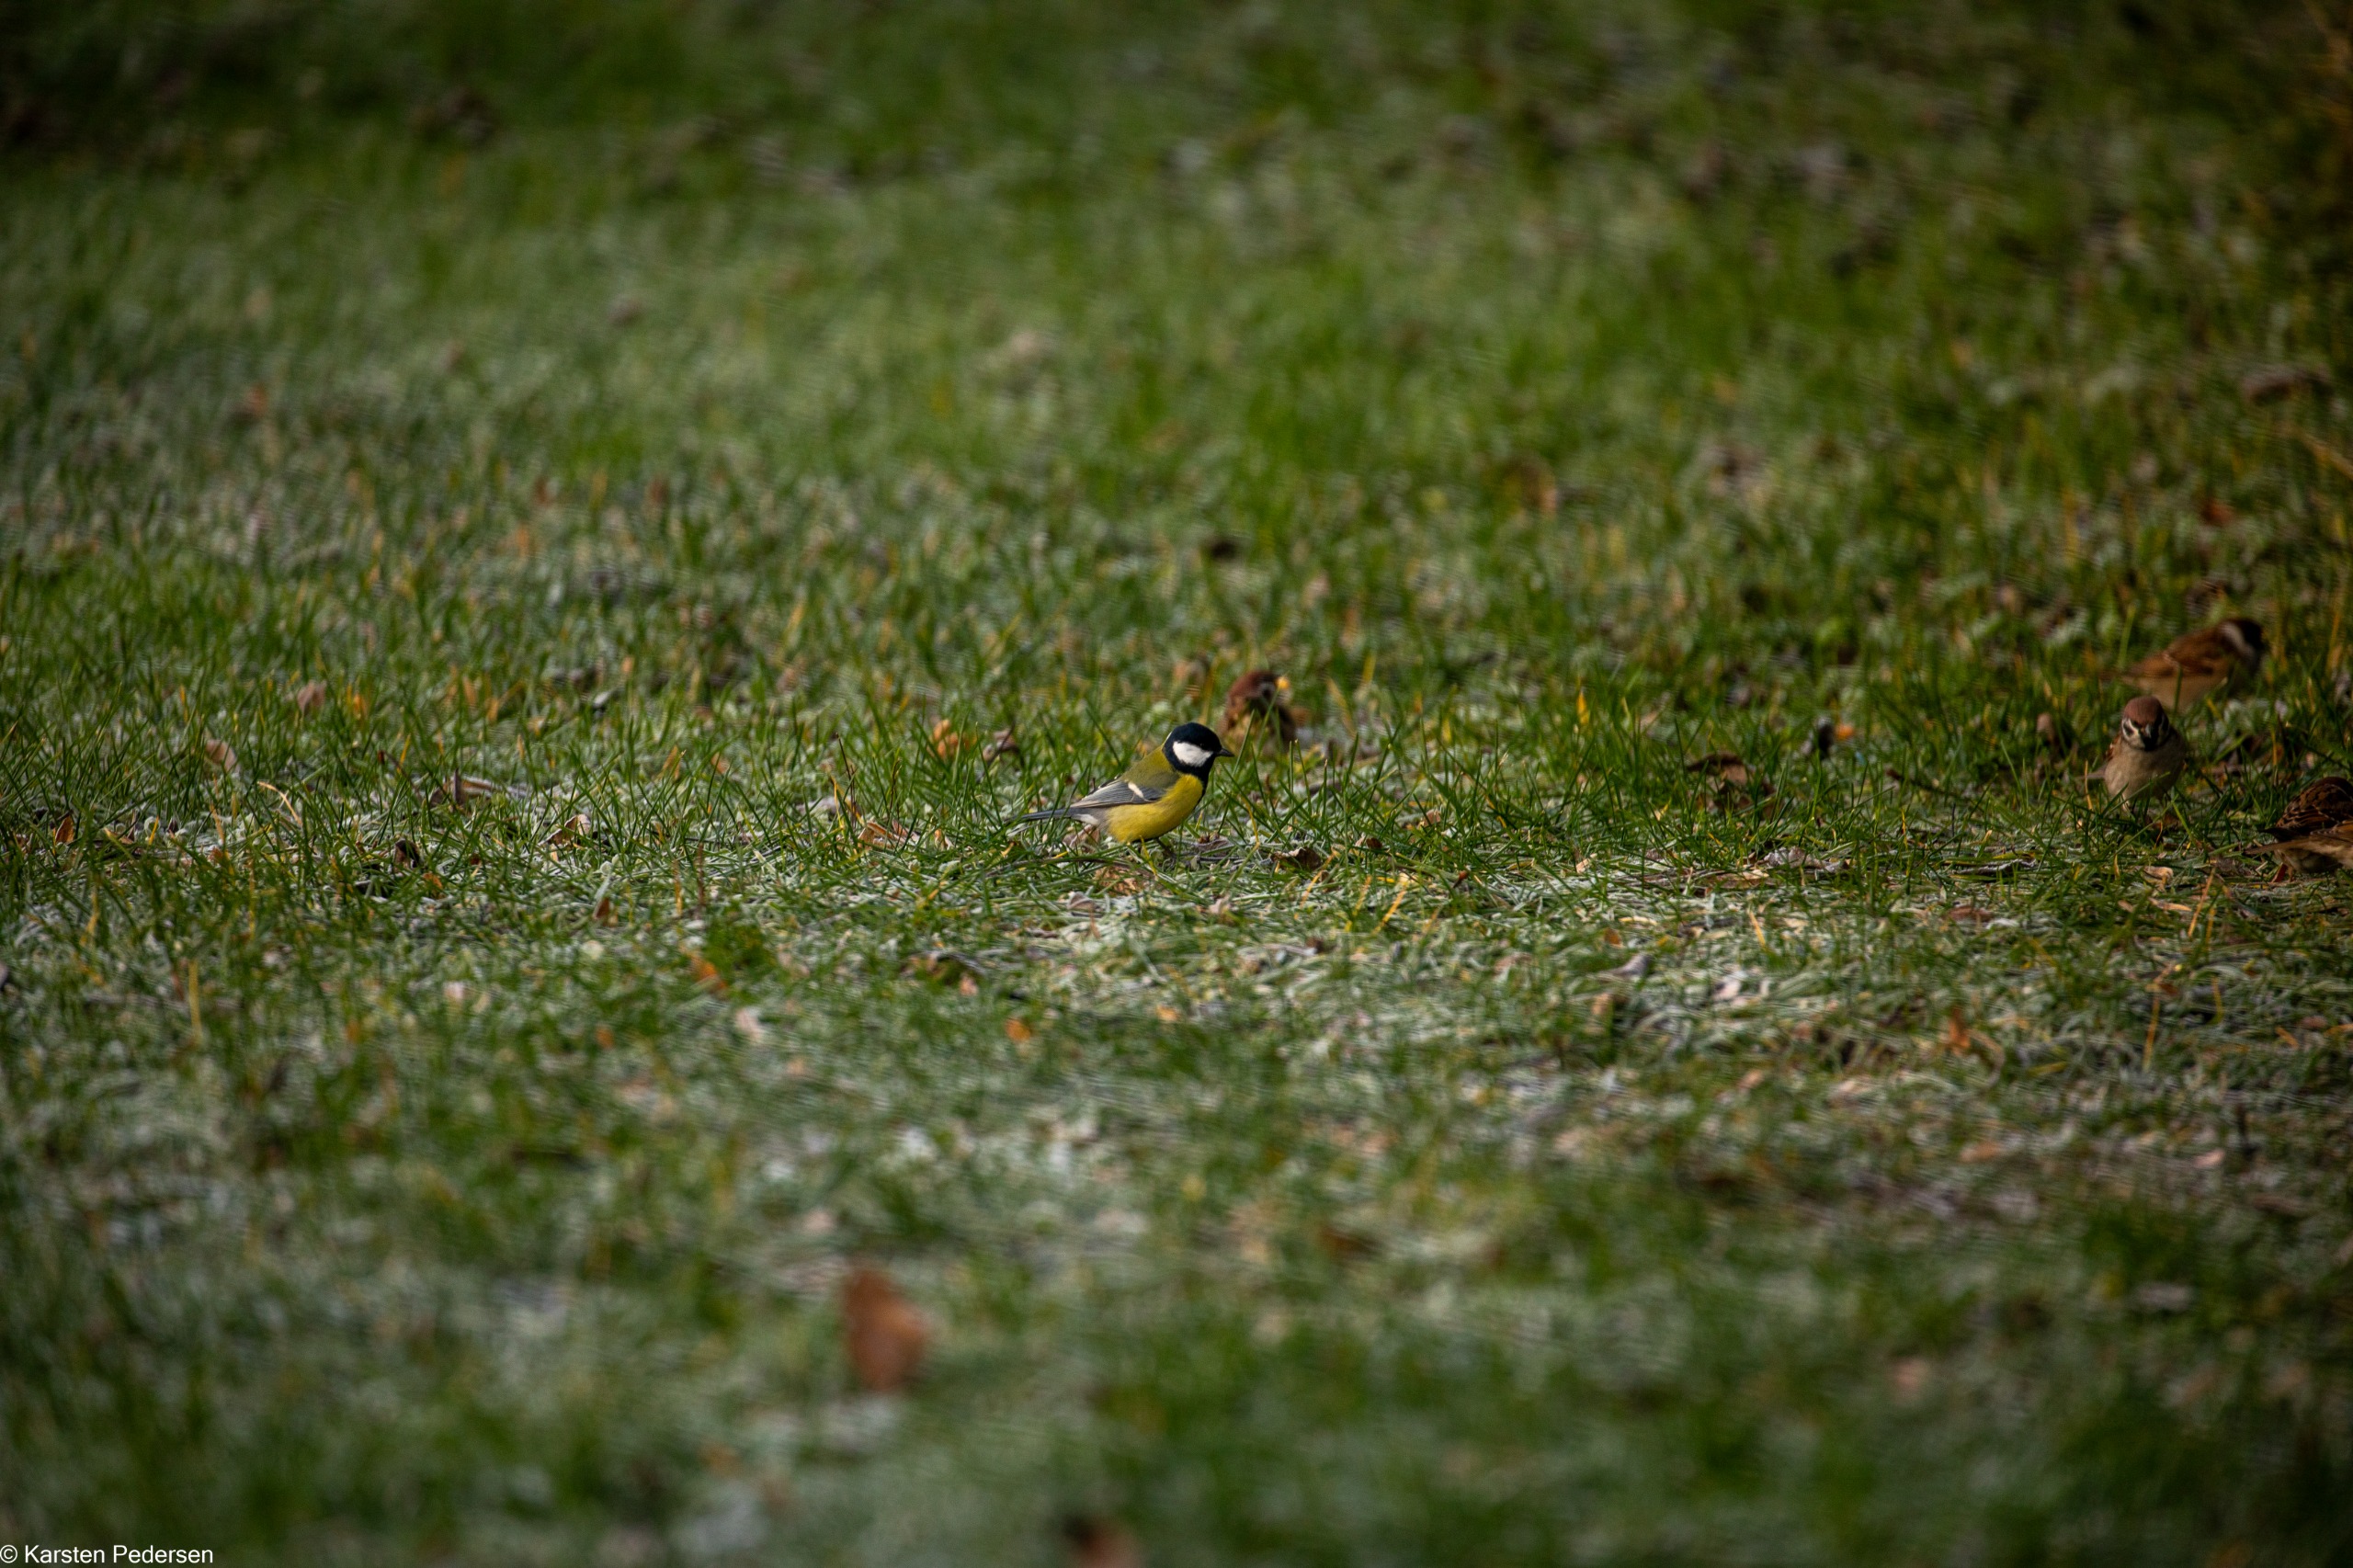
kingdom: Animalia
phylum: Chordata
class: Aves
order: Passeriformes
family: Paridae
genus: Parus
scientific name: Parus major
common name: Musvit
